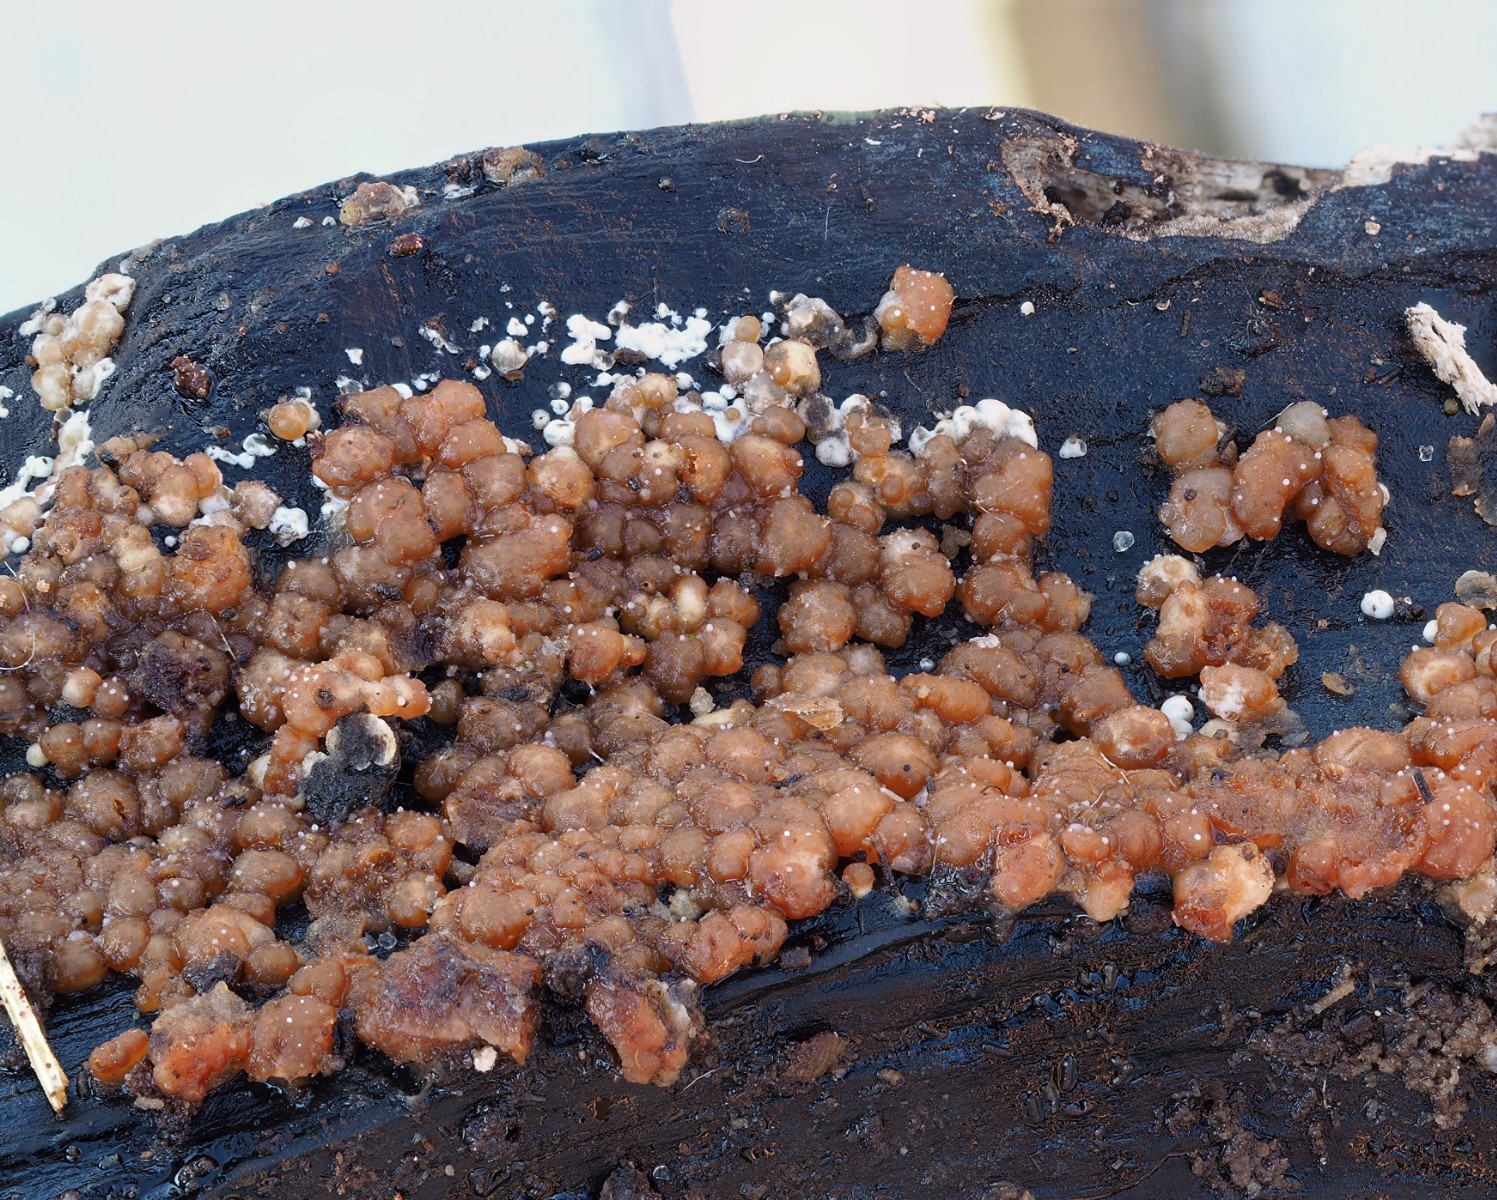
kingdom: Fungi
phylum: Ascomycota
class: Sordariomycetes
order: Hypocreales
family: Hypocreaceae
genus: Trichoderma
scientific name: Trichoderma
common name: kødkerne
